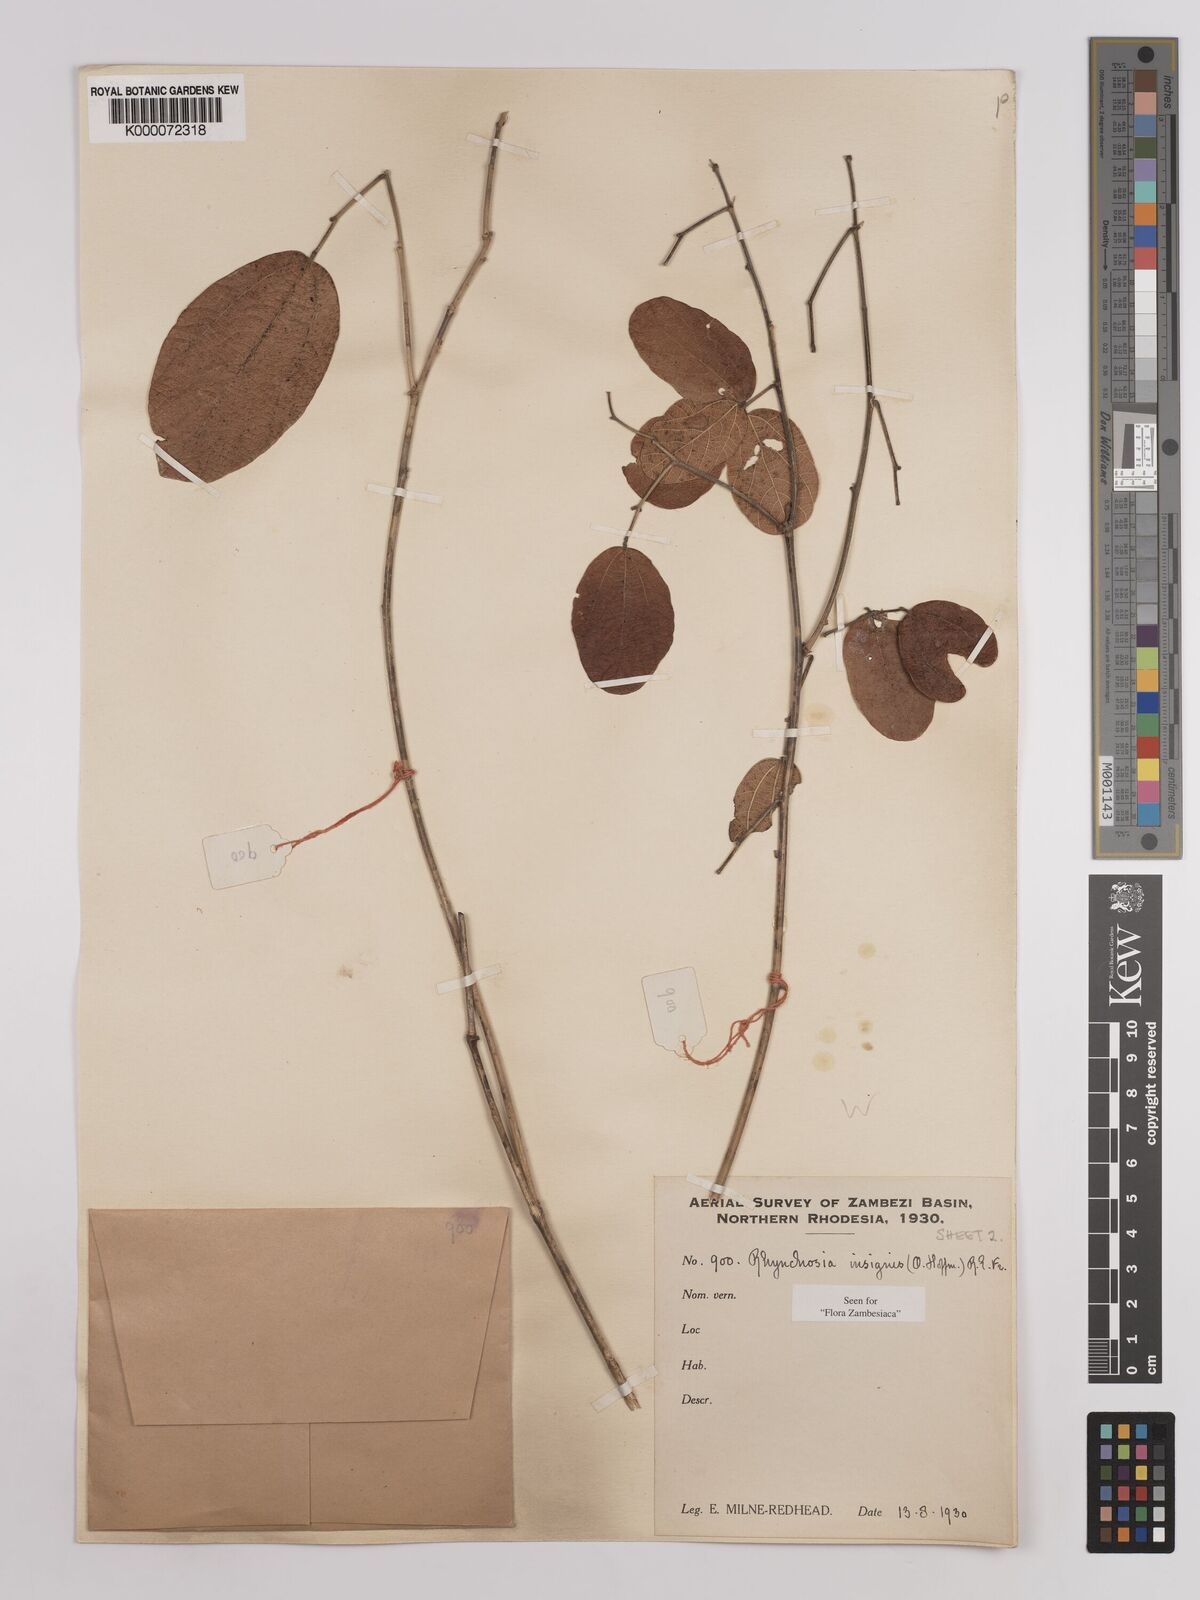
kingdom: Plantae
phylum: Tracheophyta
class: Magnoliopsida
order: Fabales
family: Fabaceae
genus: Rhynchosia
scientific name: Rhynchosia insignis
